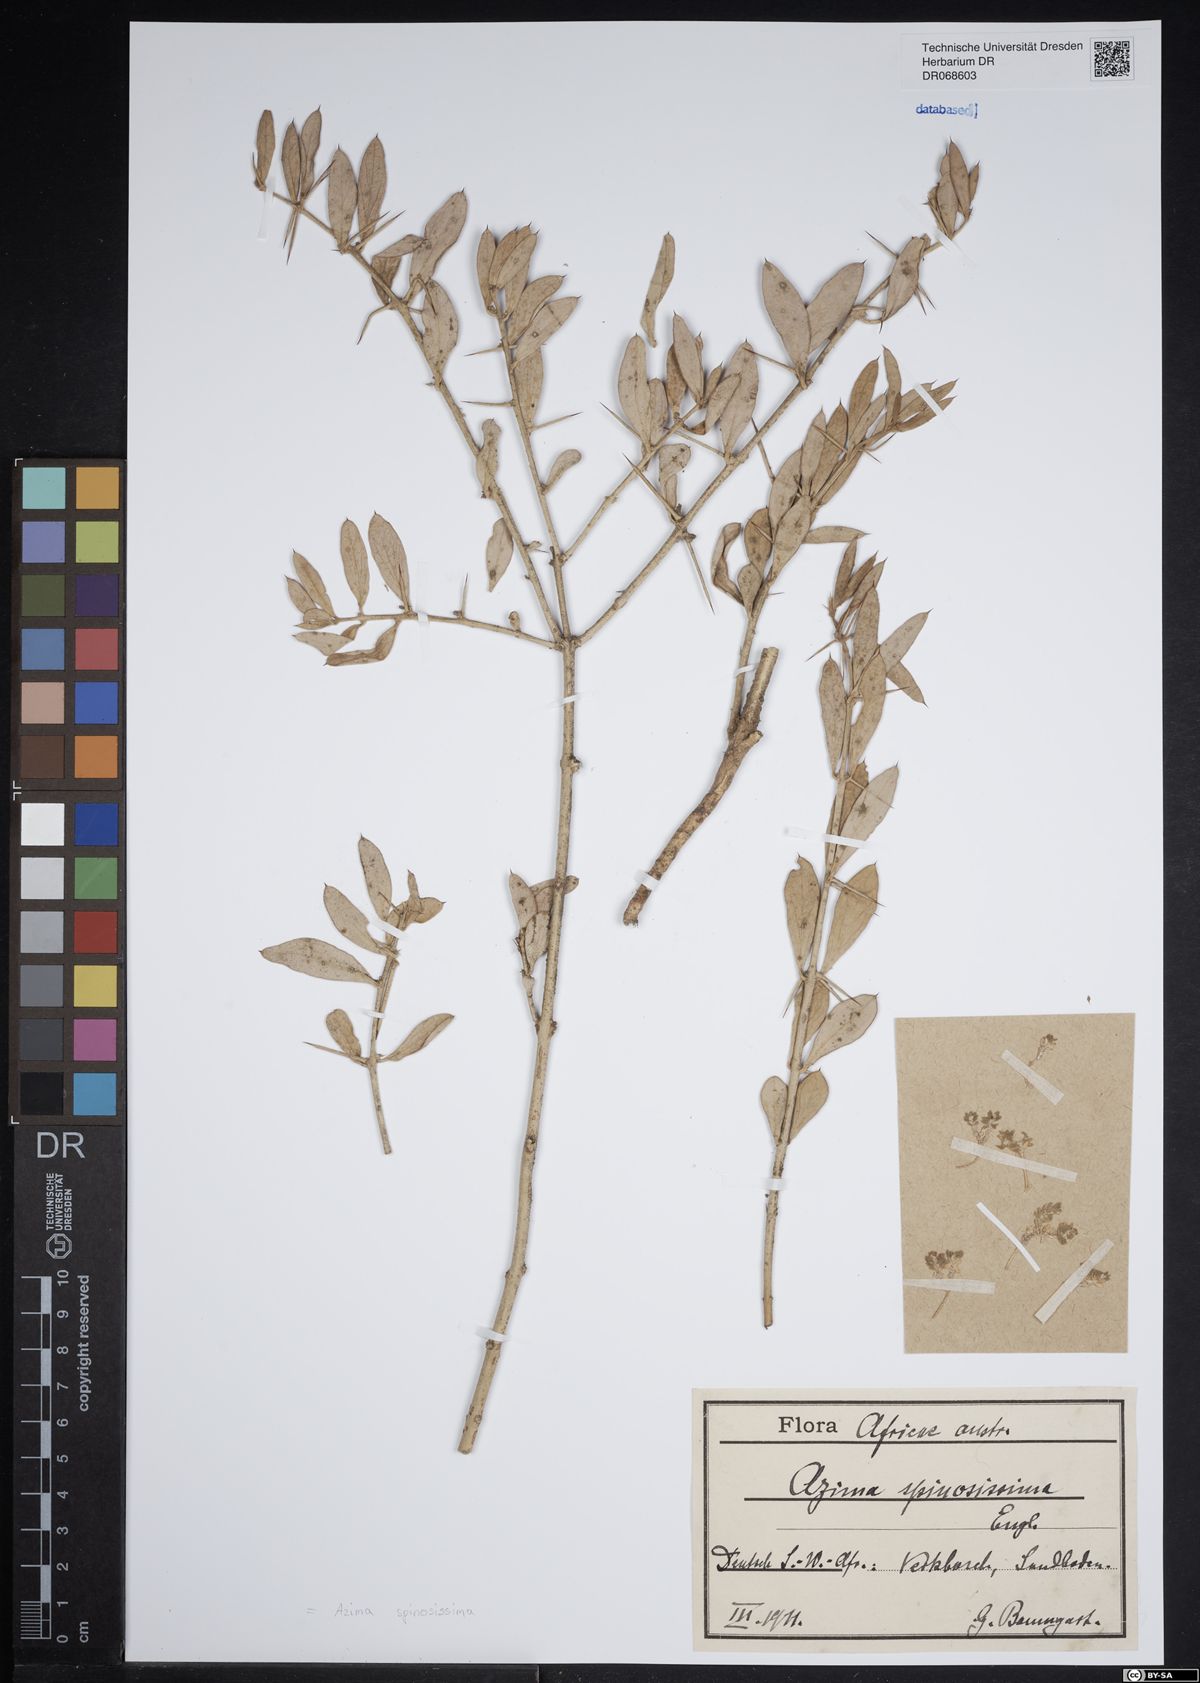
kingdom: Plantae
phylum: Tracheophyta
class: Magnoliopsida
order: Brassicales
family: Salvadoraceae
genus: Azima
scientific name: Azima tetracantha
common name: Needle bush
